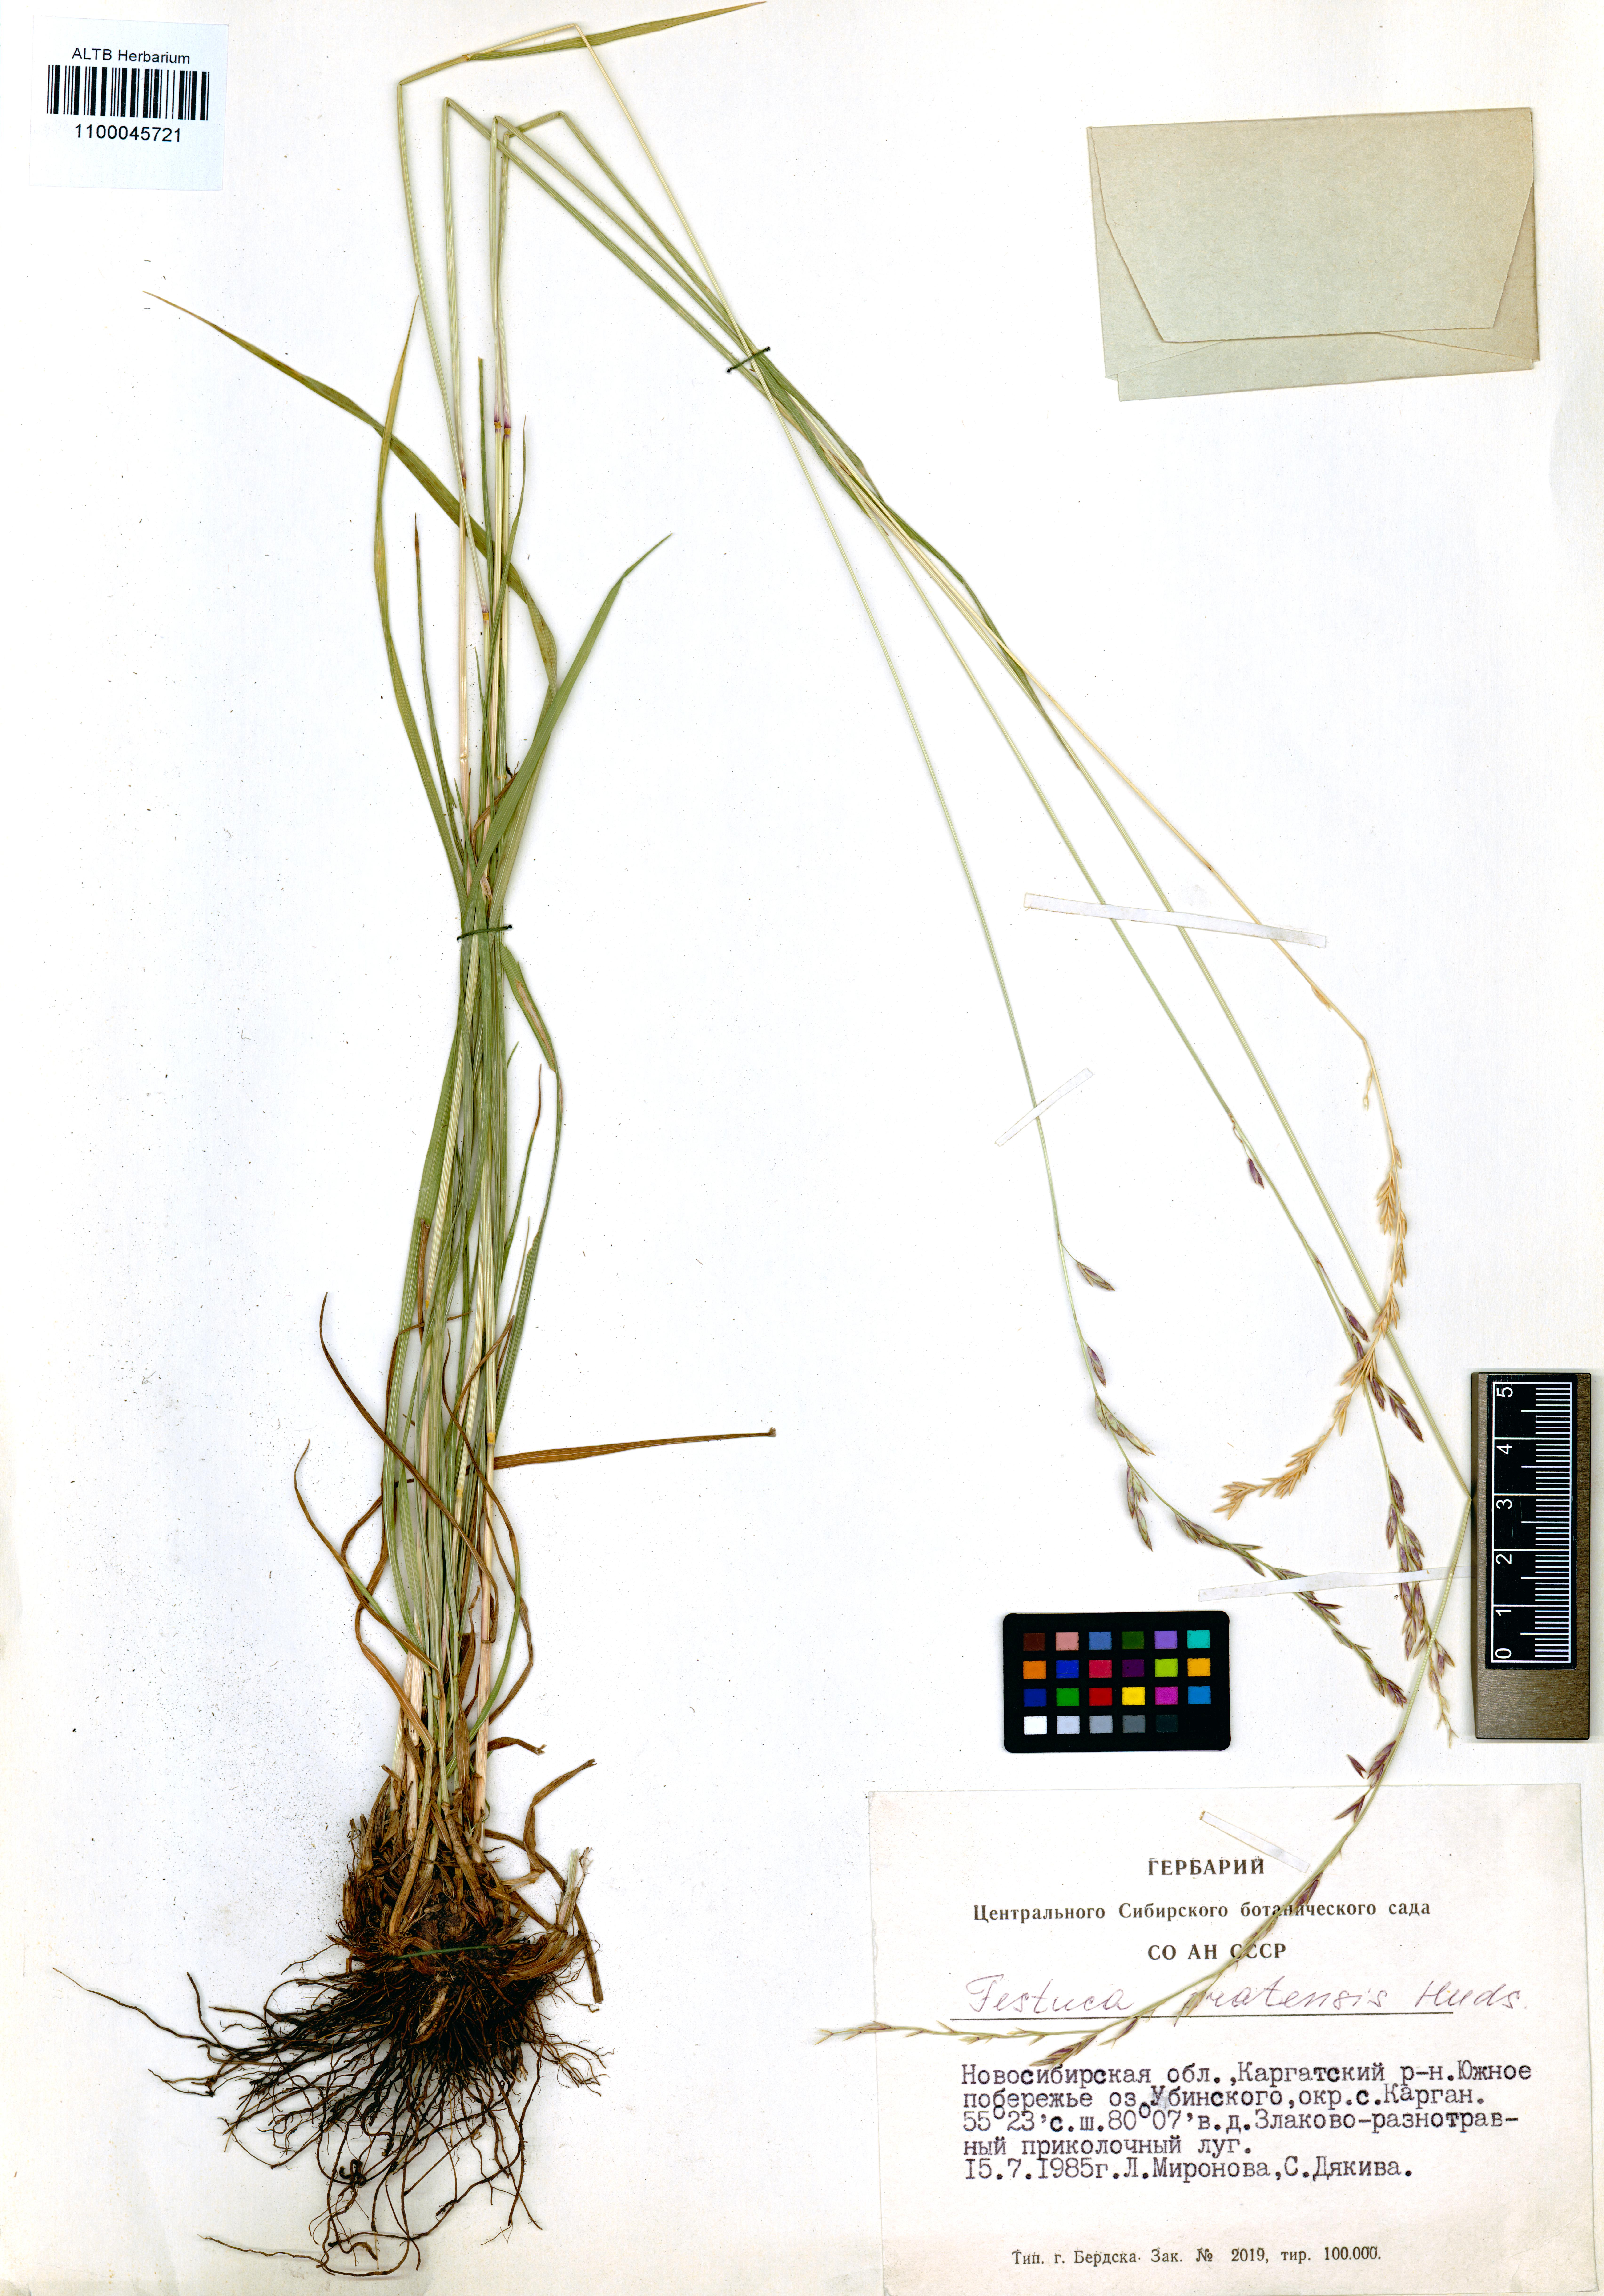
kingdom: Plantae
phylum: Tracheophyta
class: Liliopsida
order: Poales
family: Poaceae
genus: Lolium
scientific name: Lolium pratense
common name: Dover grass
